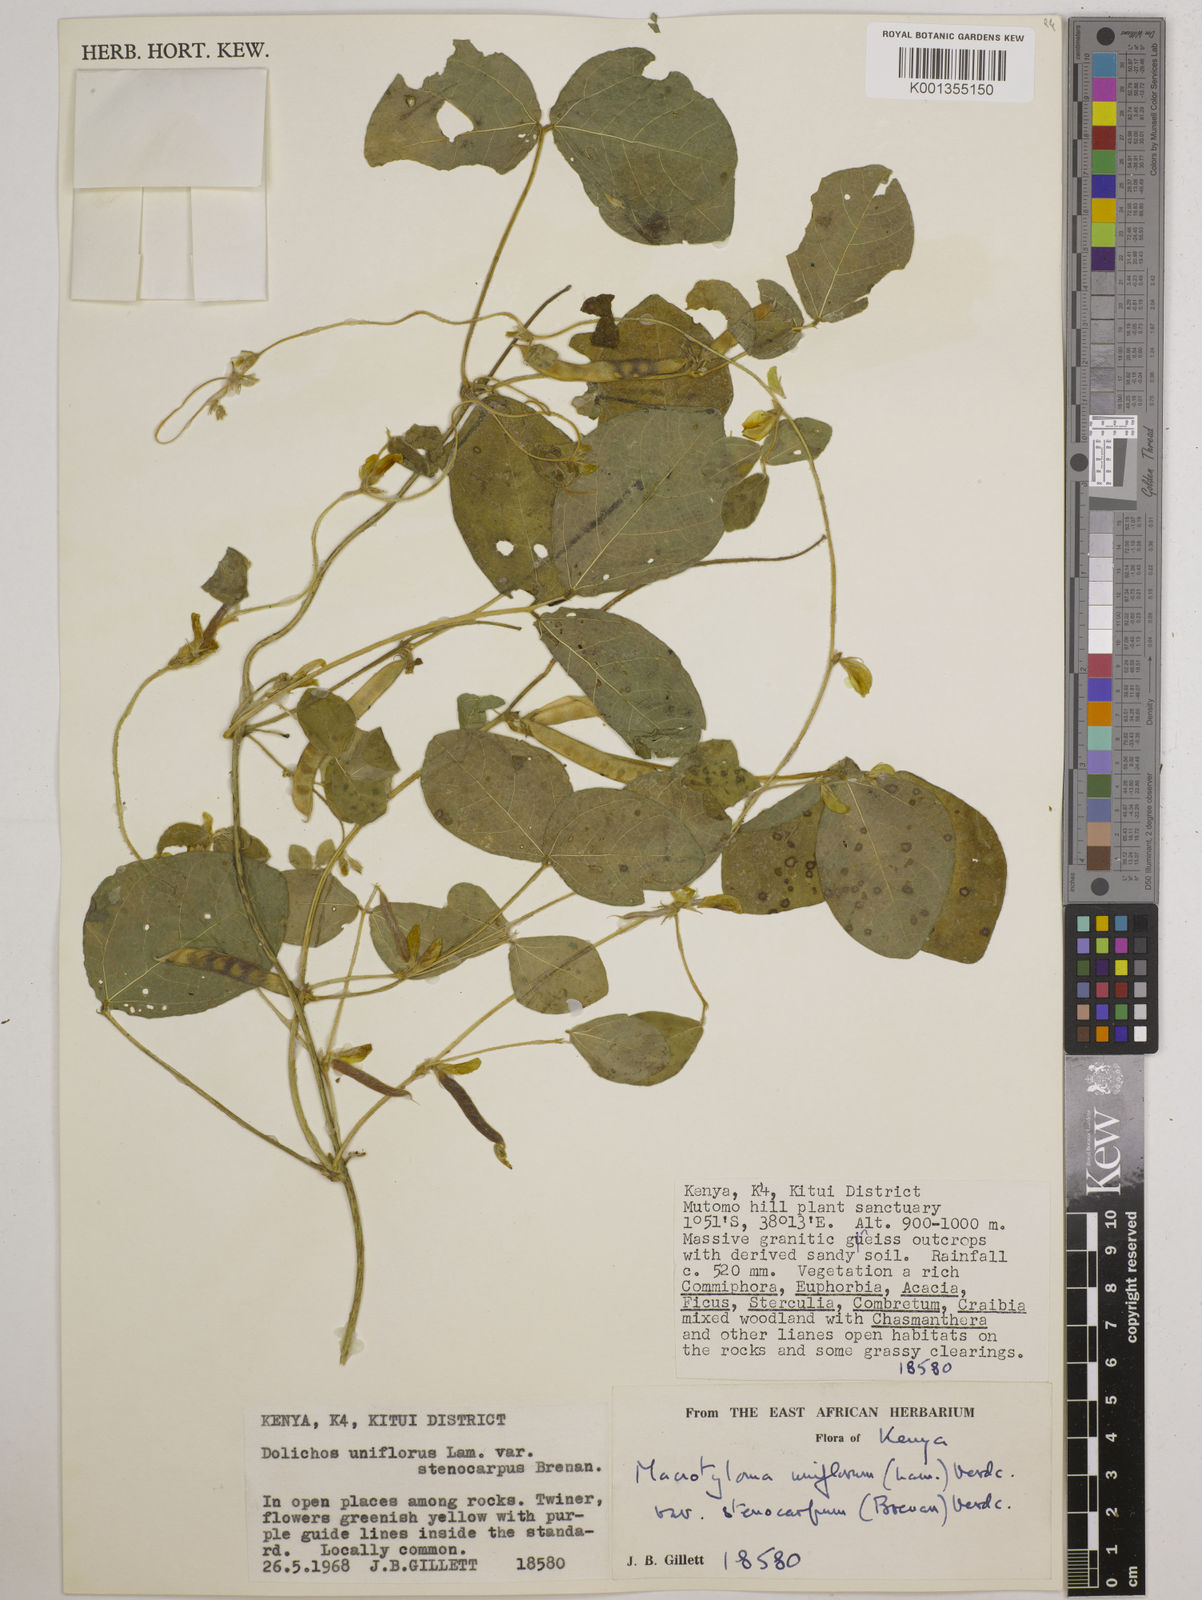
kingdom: Plantae
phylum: Tracheophyta
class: Magnoliopsida
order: Fabales
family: Fabaceae
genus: Macrotyloma
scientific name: Macrotyloma
